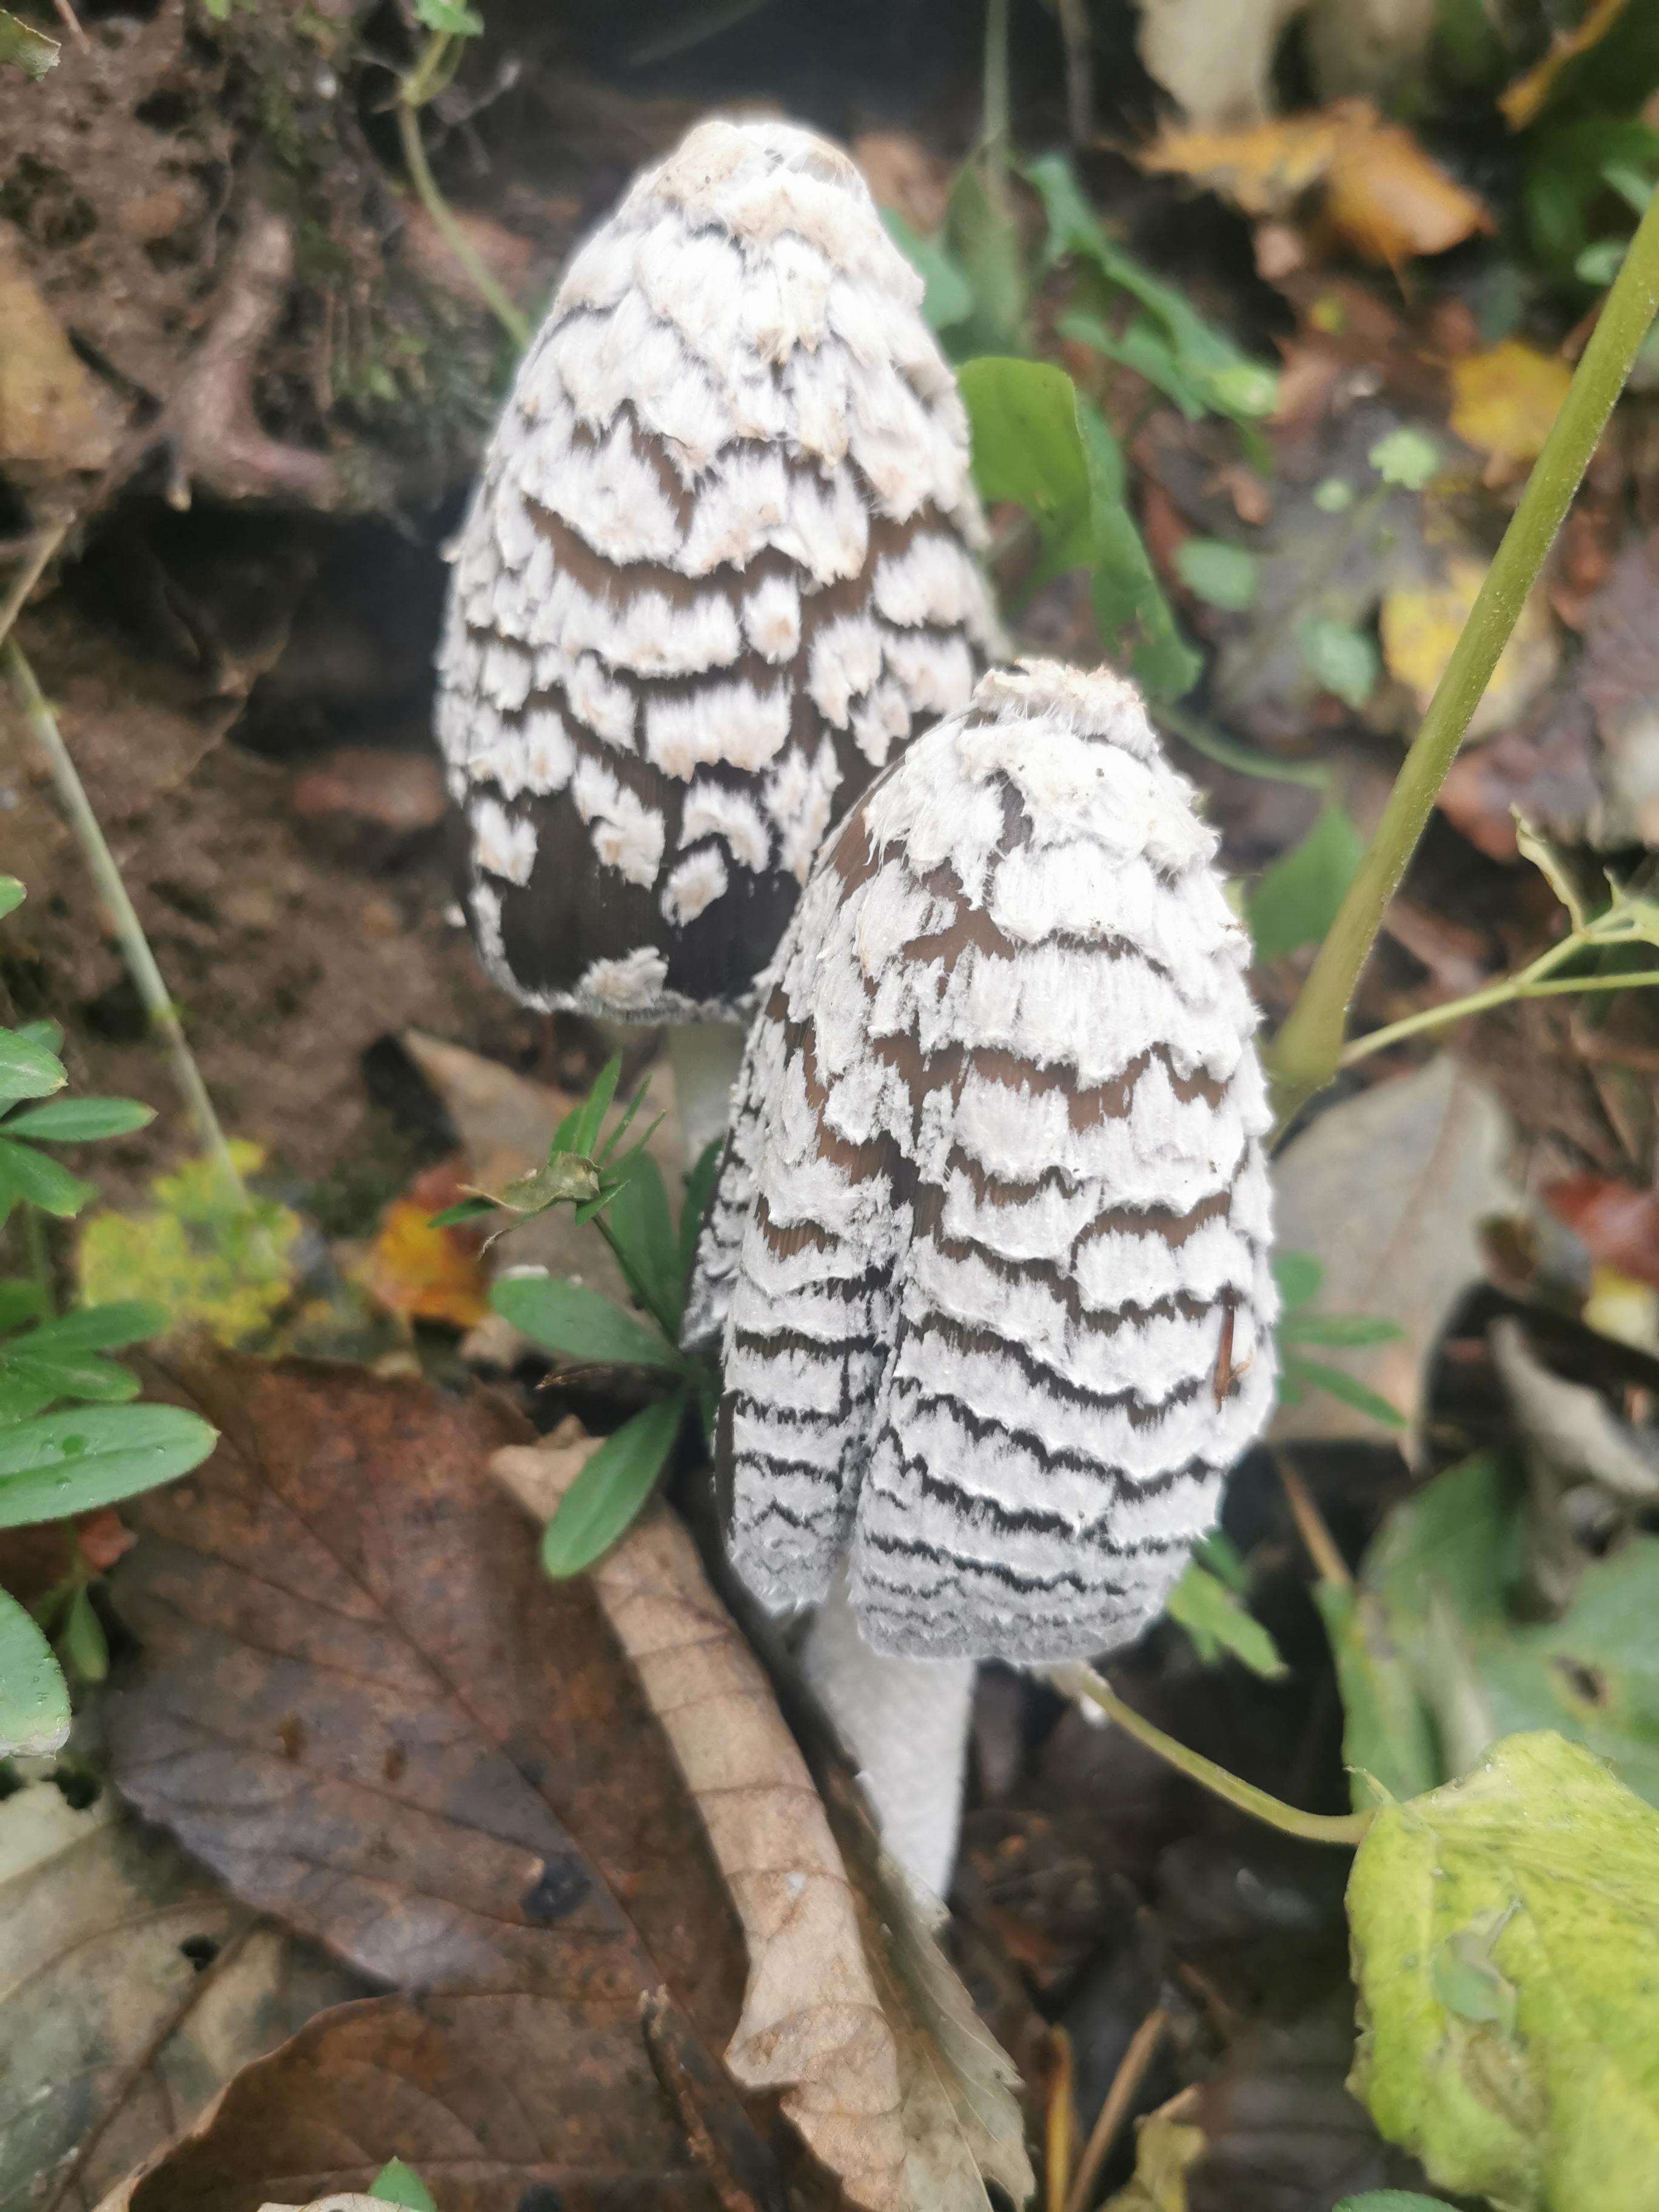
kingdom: Fungi
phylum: Basidiomycota
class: Agaricomycetes
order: Agaricales
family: Psathyrellaceae
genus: Coprinopsis
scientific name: Coprinopsis picacea
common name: skade-blækhat
